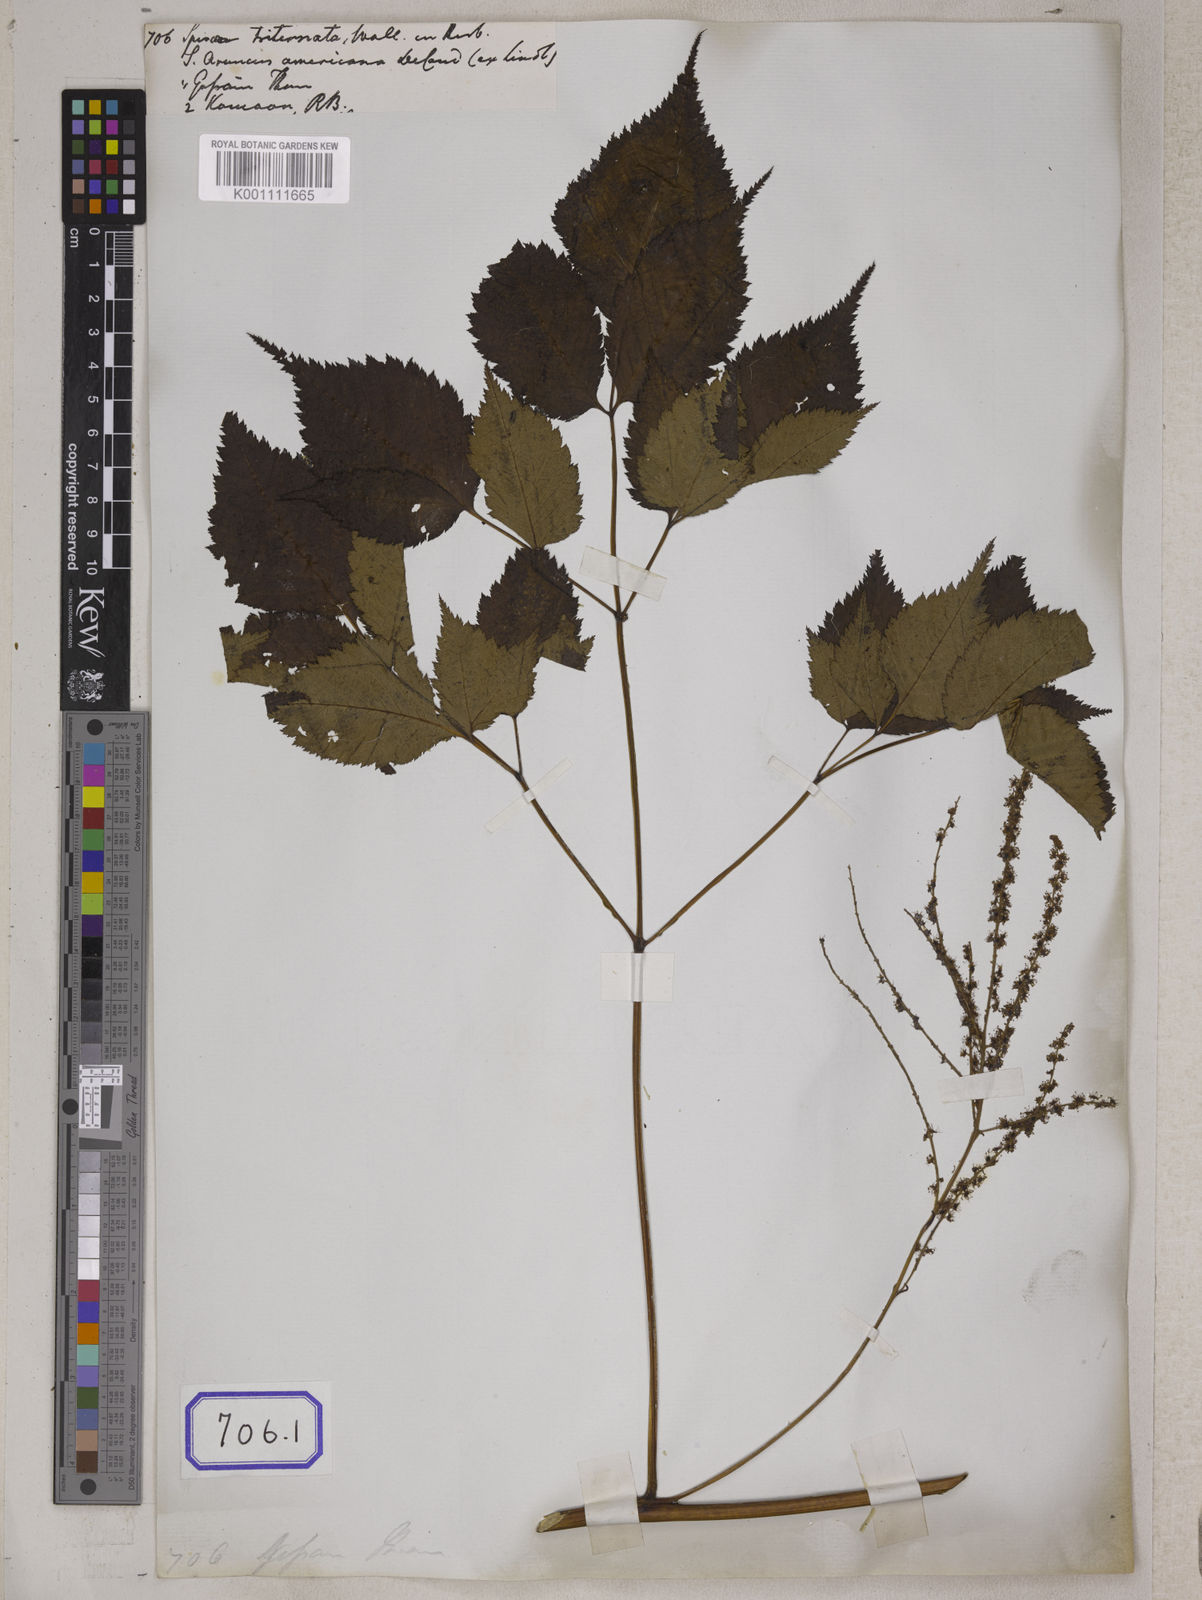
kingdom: Plantae
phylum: Tracheophyta
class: Magnoliopsida
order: Rosales
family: Rosaceae
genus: Aruncus
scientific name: Aruncus sylvester
